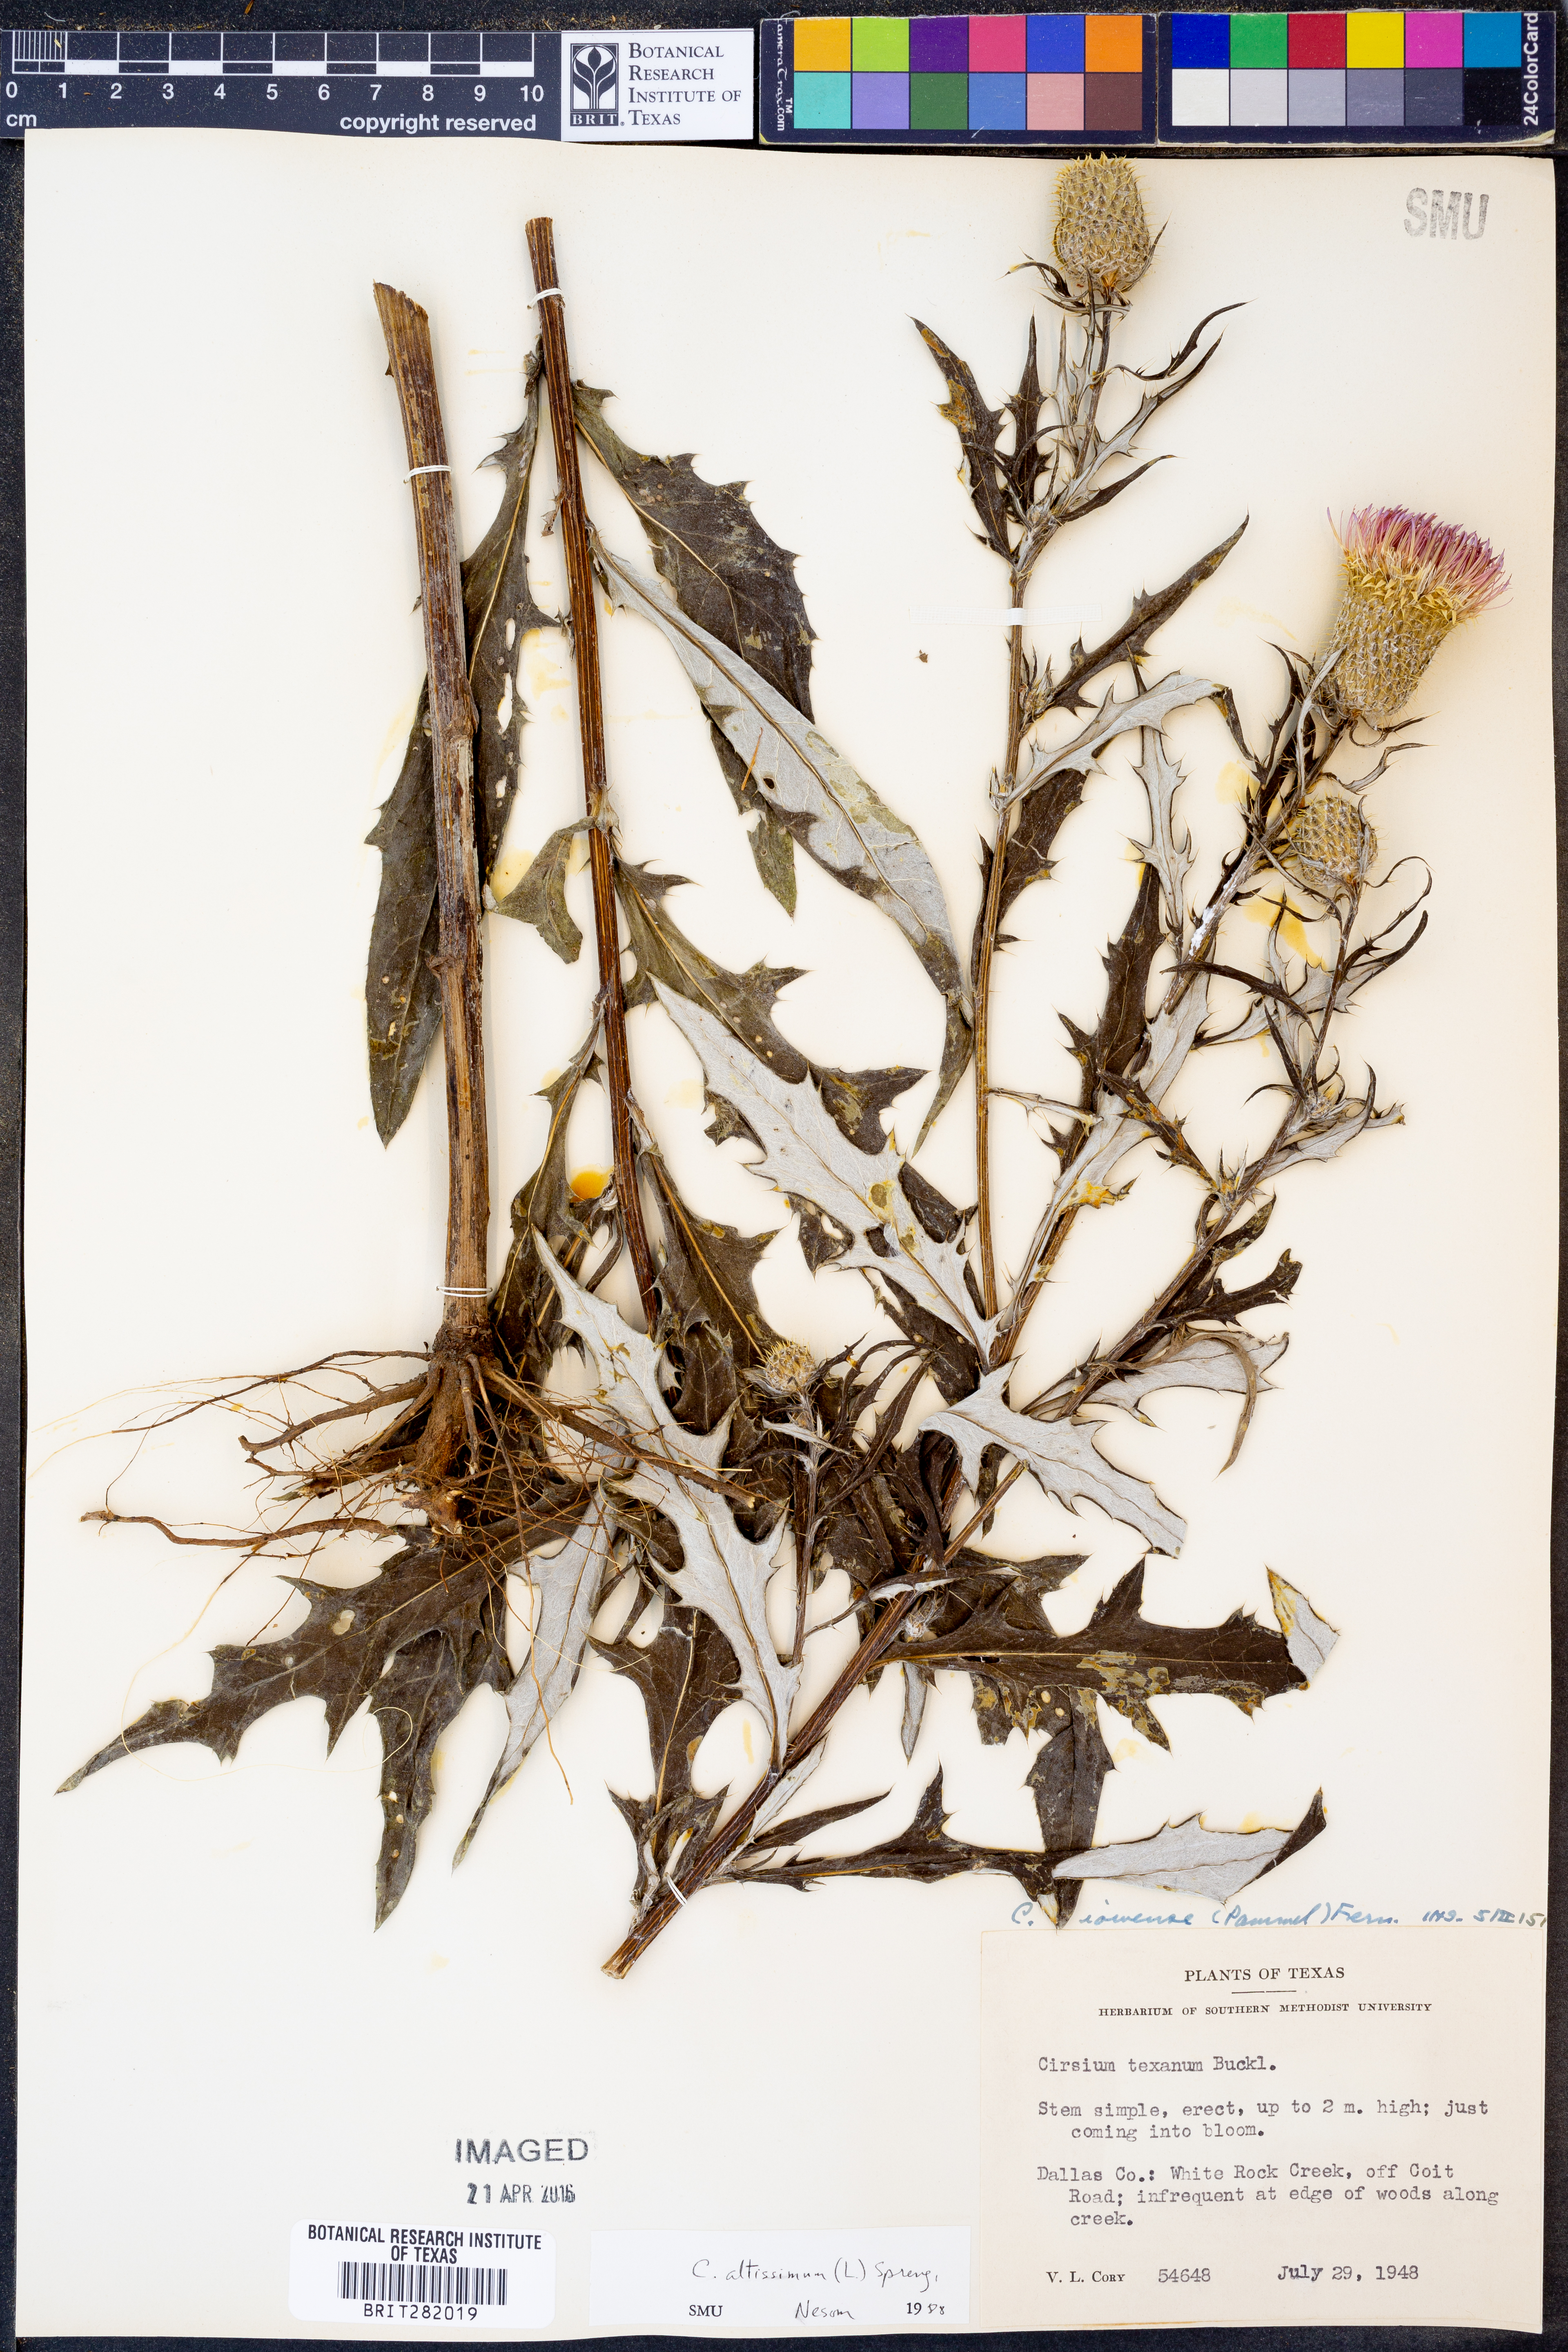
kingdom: Plantae
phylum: Tracheophyta
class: Magnoliopsida
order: Asterales
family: Asteraceae
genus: Cirsium
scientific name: Cirsium altissimum
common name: Roadside thistle
